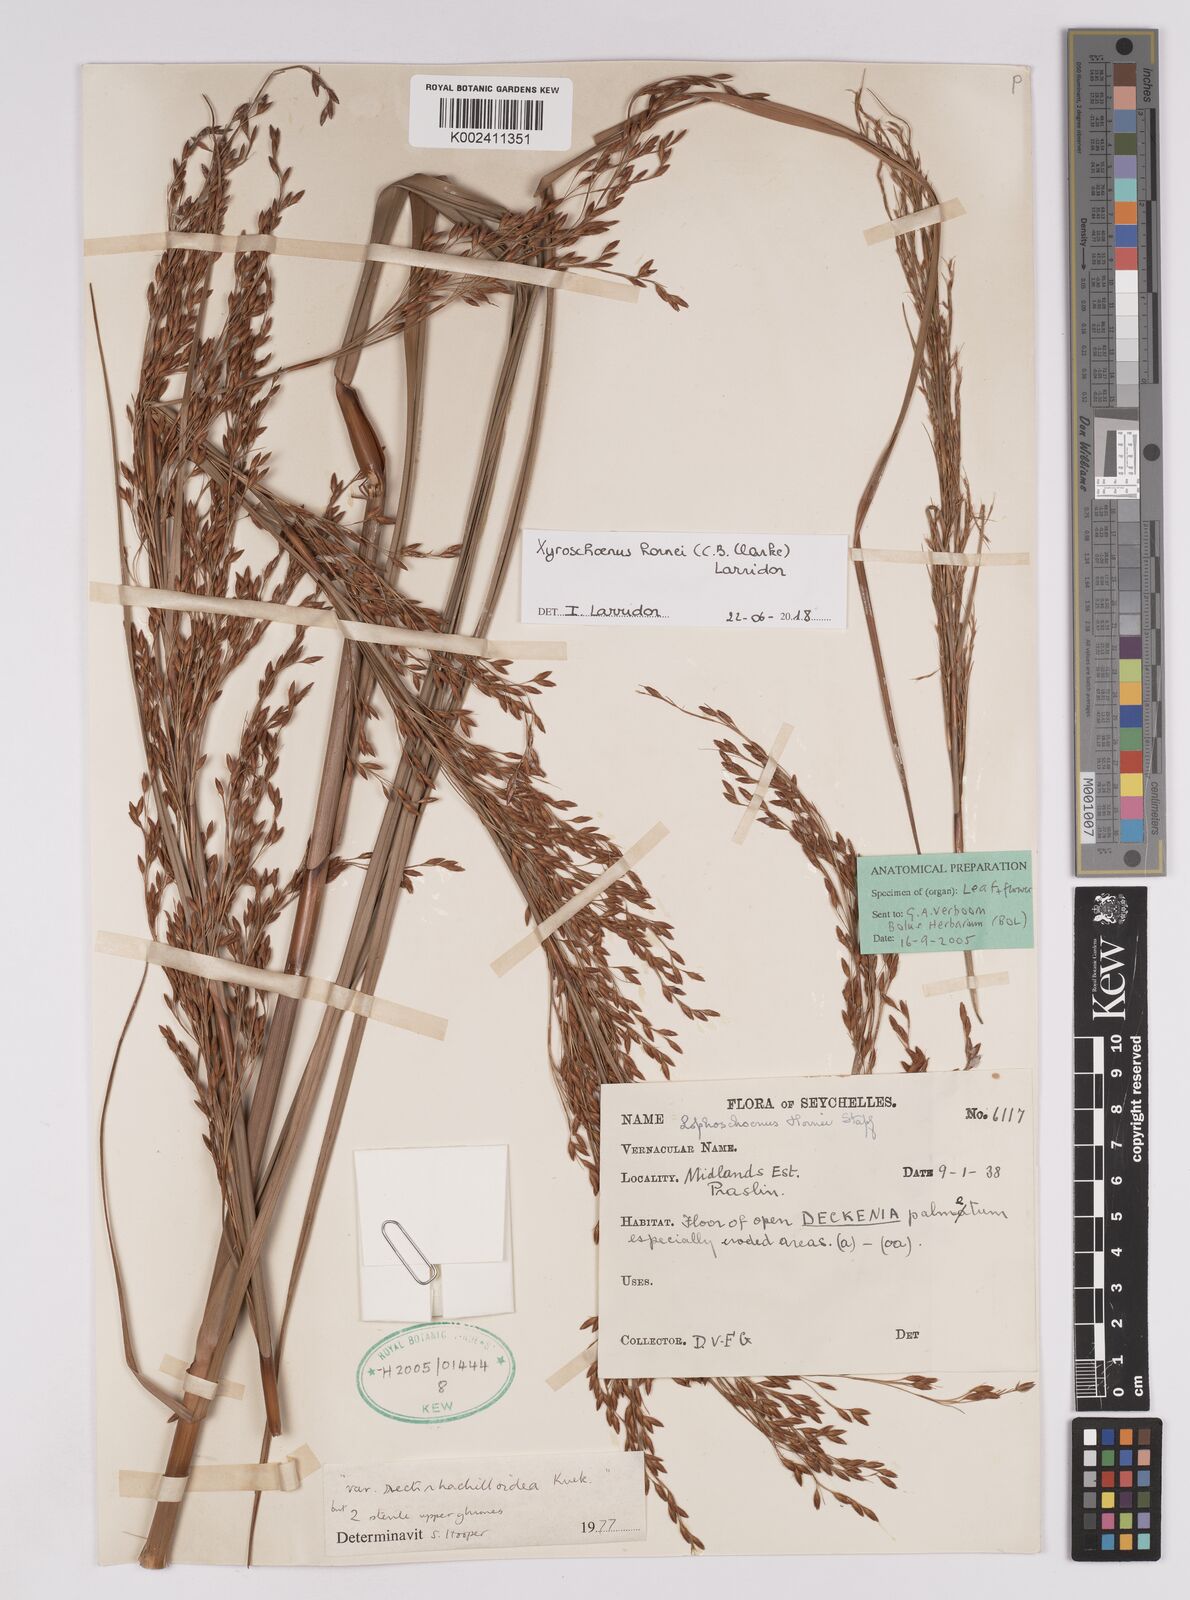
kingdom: Plantae
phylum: Tracheophyta
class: Liliopsida
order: Poales
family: Cyperaceae
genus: Xyroschoenus
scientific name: Xyroschoenus hornei
